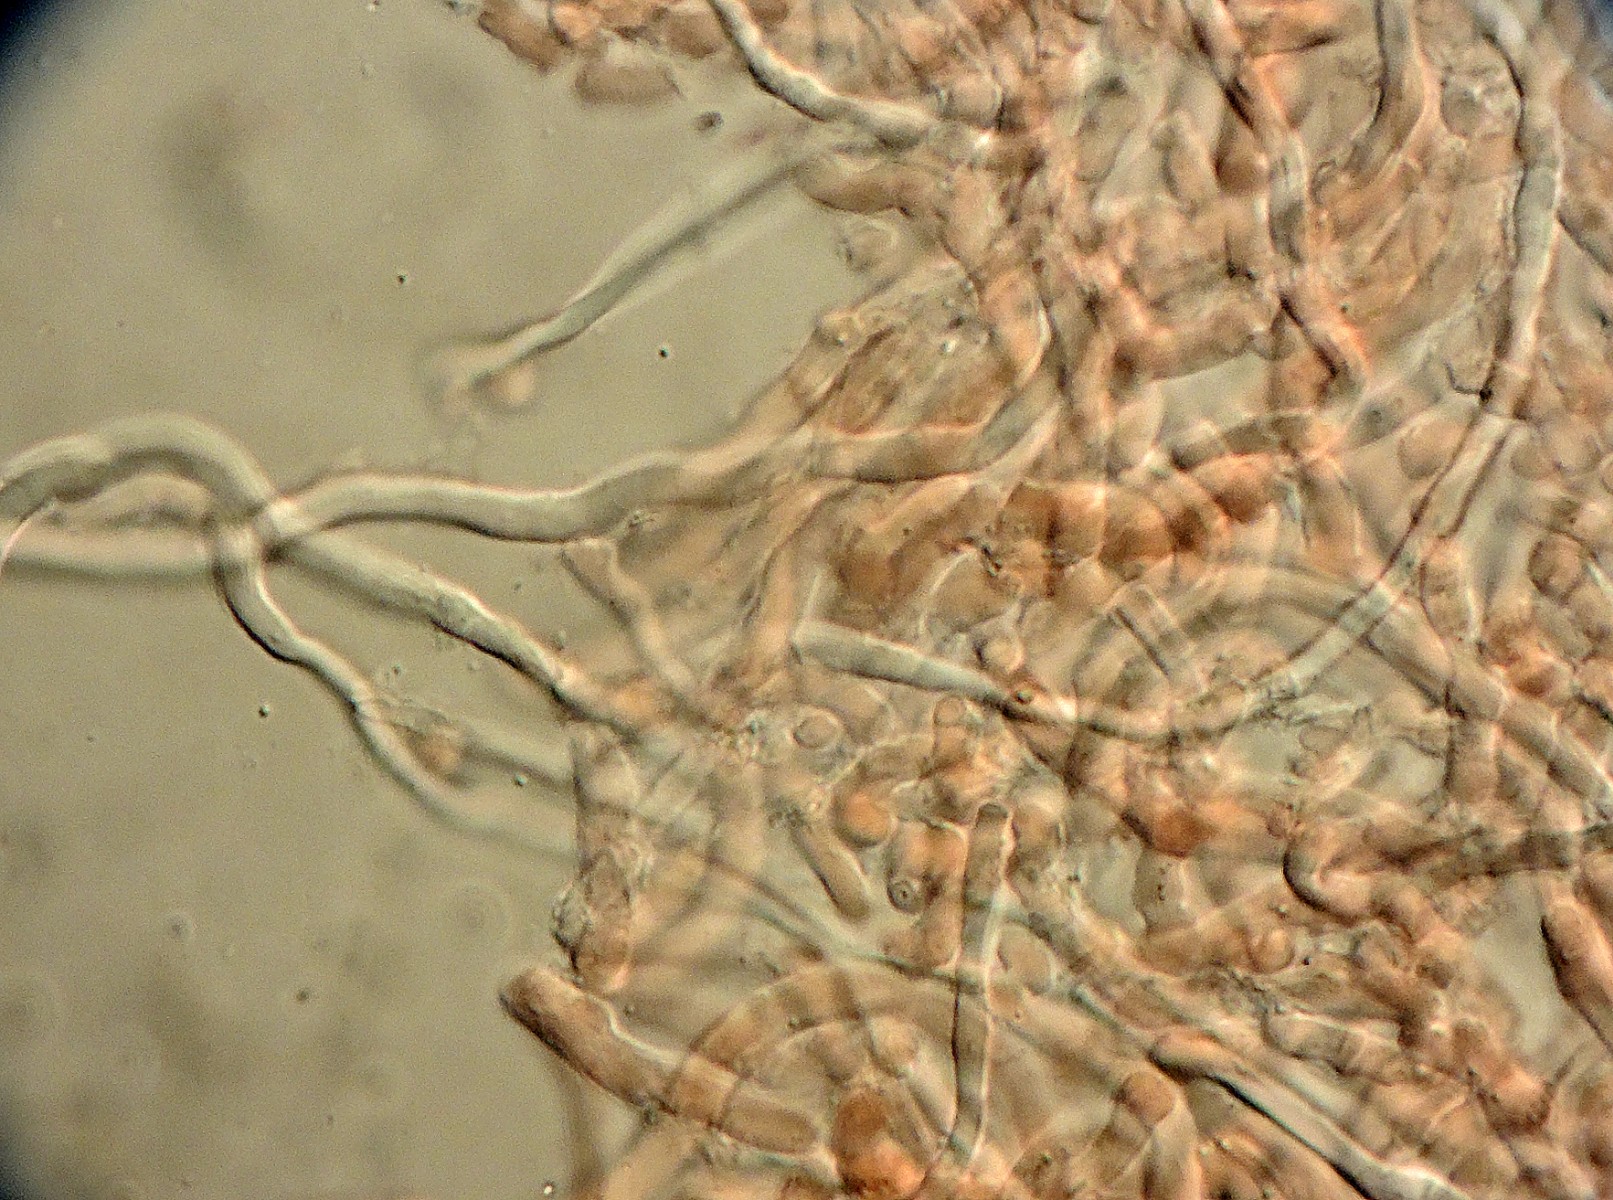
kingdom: Fungi
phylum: Basidiomycota
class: Agaricomycetes
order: Polyporales
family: Fomitopsidaceae
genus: Fomitopsis
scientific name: Fomitopsis
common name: pile-skiveporesvamp
